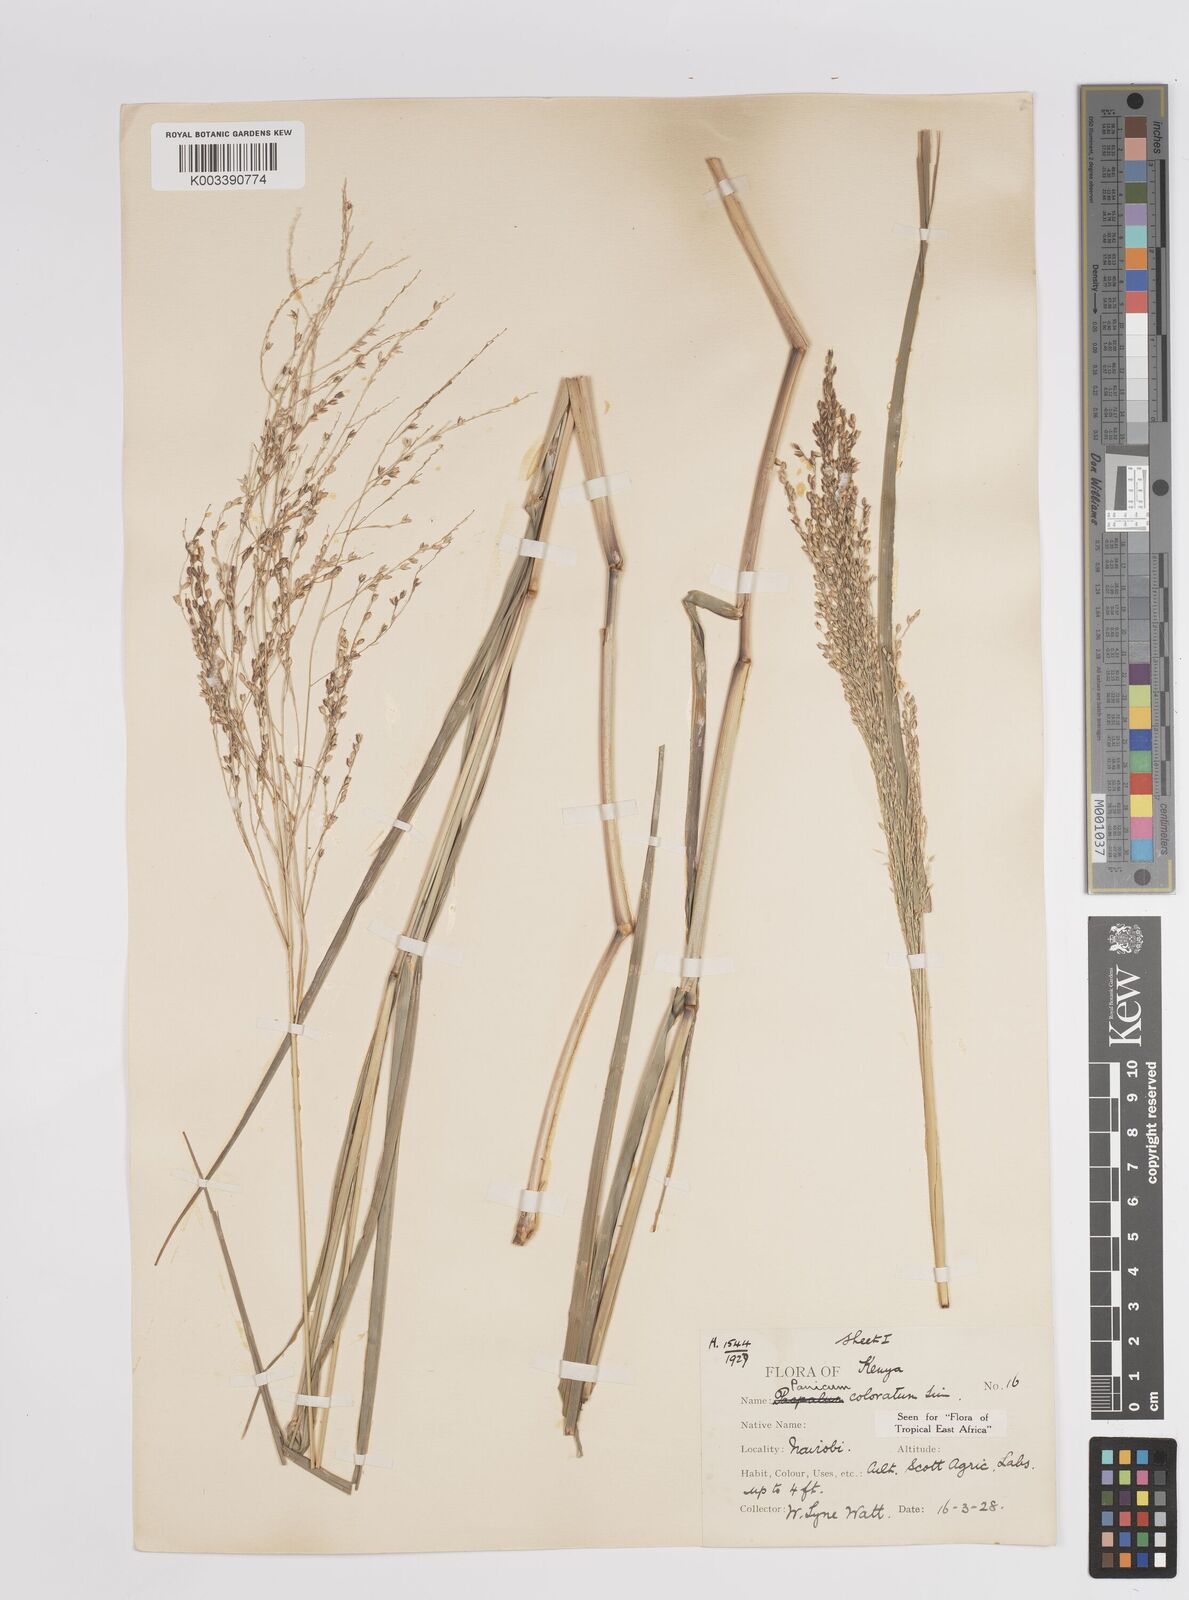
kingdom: Plantae
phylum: Tracheophyta
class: Liliopsida
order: Poales
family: Poaceae
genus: Panicum
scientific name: Panicum coloratum
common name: Kleingrass
